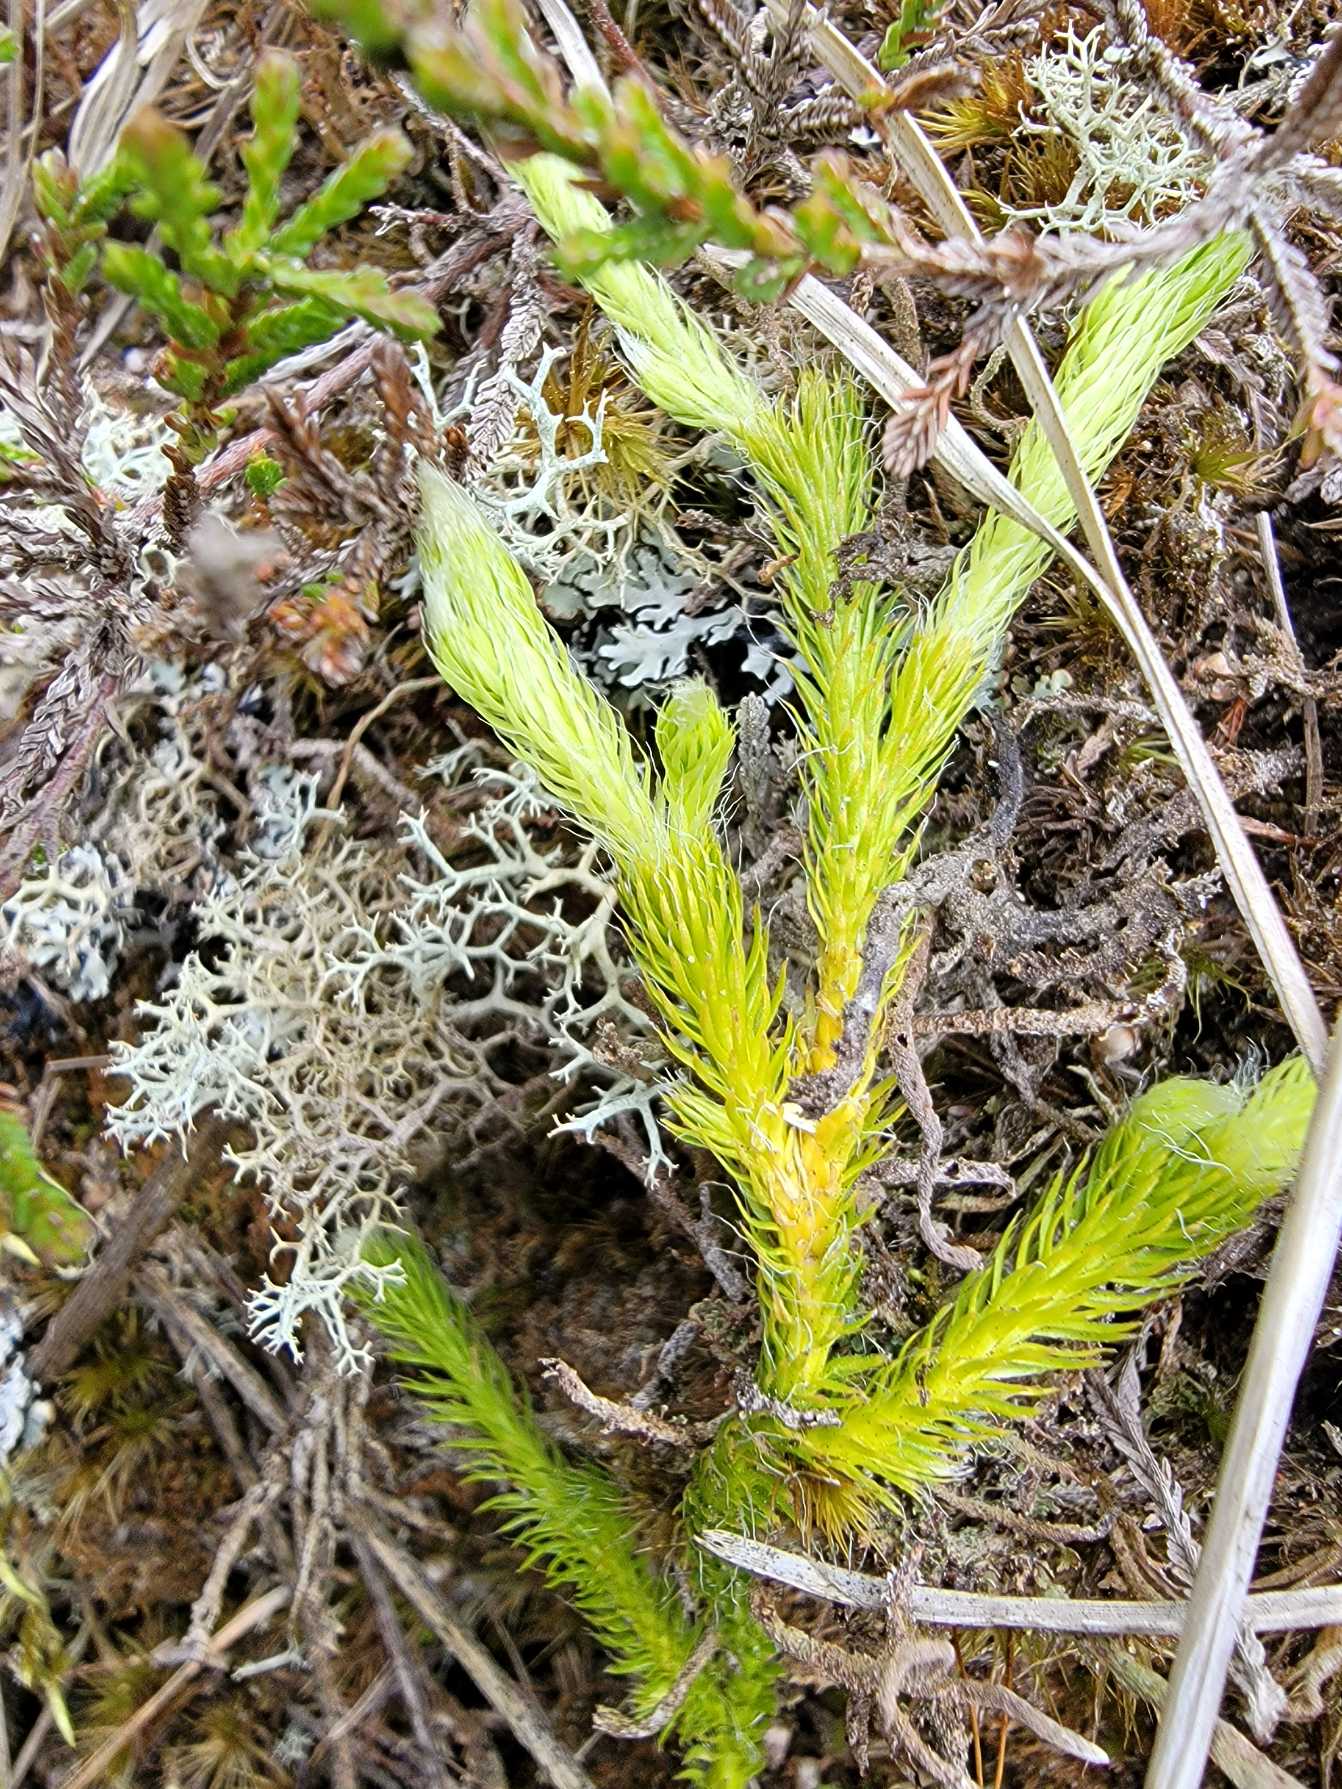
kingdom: Plantae
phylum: Tracheophyta
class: Lycopodiopsida
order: Lycopodiales
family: Lycopodiaceae
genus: Lycopodium
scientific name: Lycopodium clavatum
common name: Almindelig ulvefod
